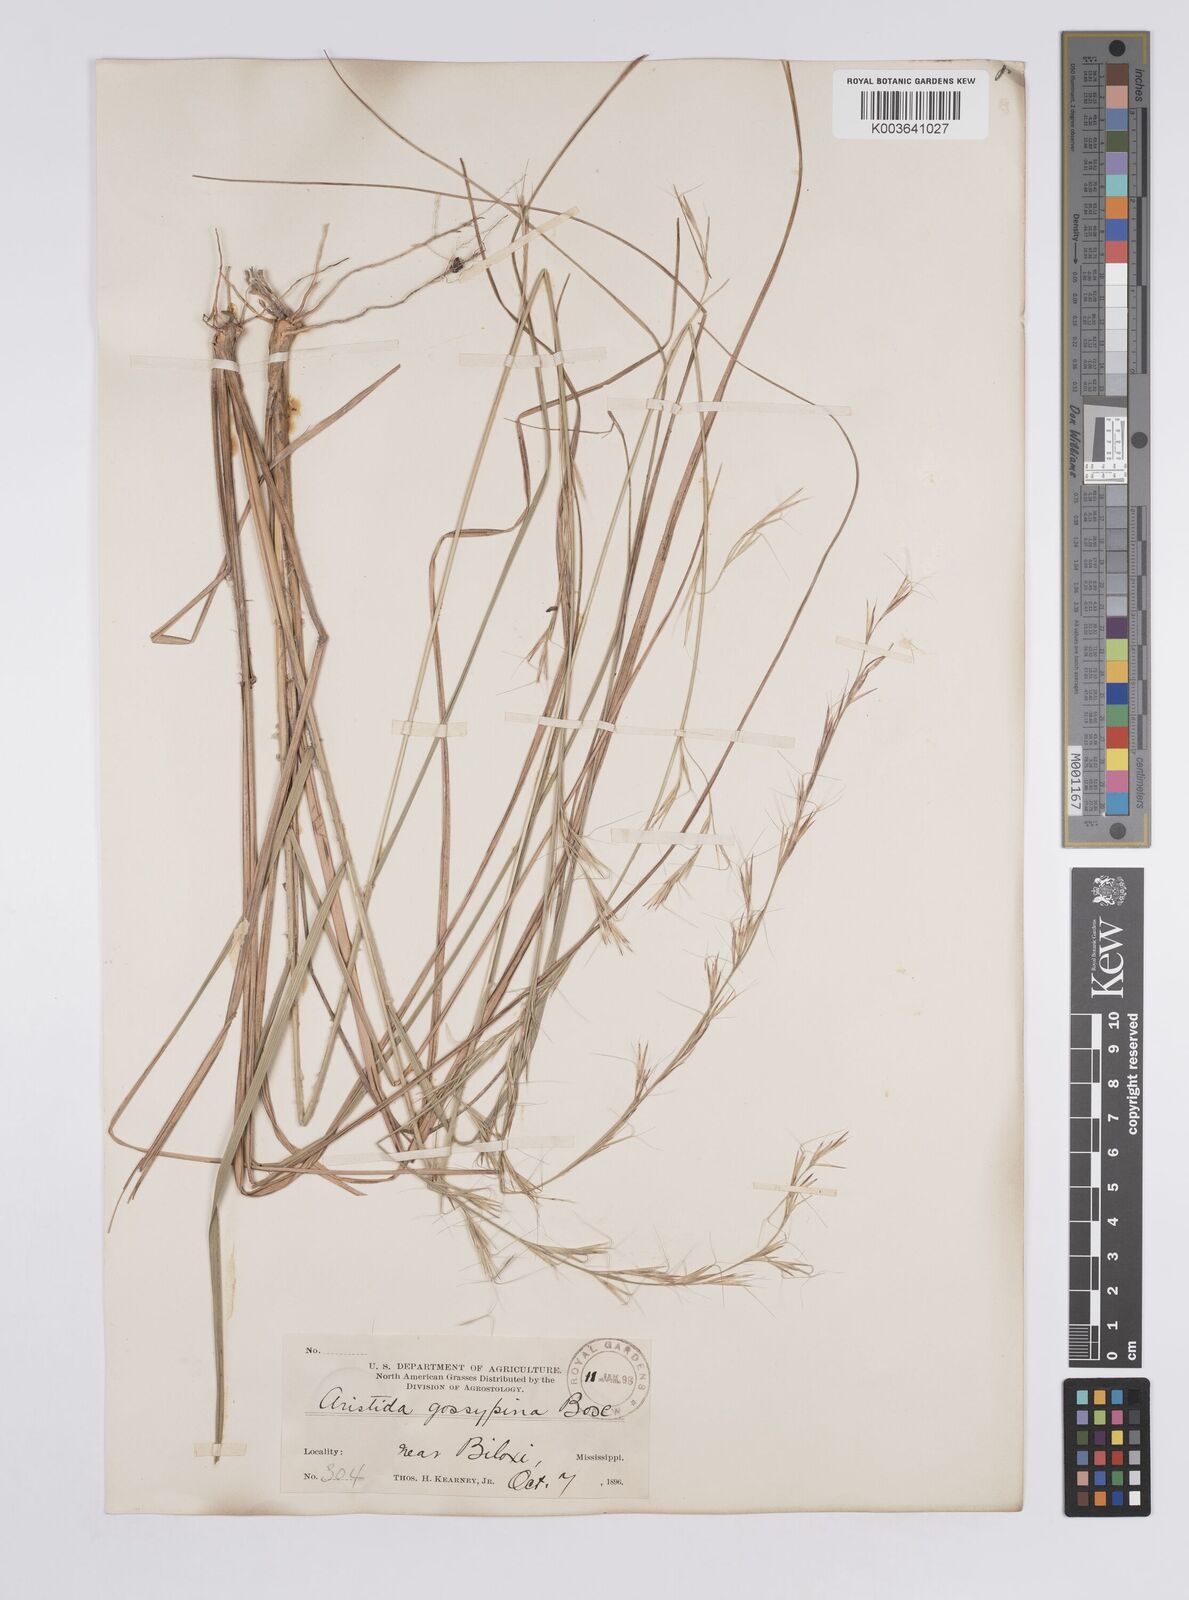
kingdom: Plantae
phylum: Tracheophyta
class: Liliopsida
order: Poales
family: Poaceae
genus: Aristida
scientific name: Aristida lanosa
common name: Woolly three-awn
